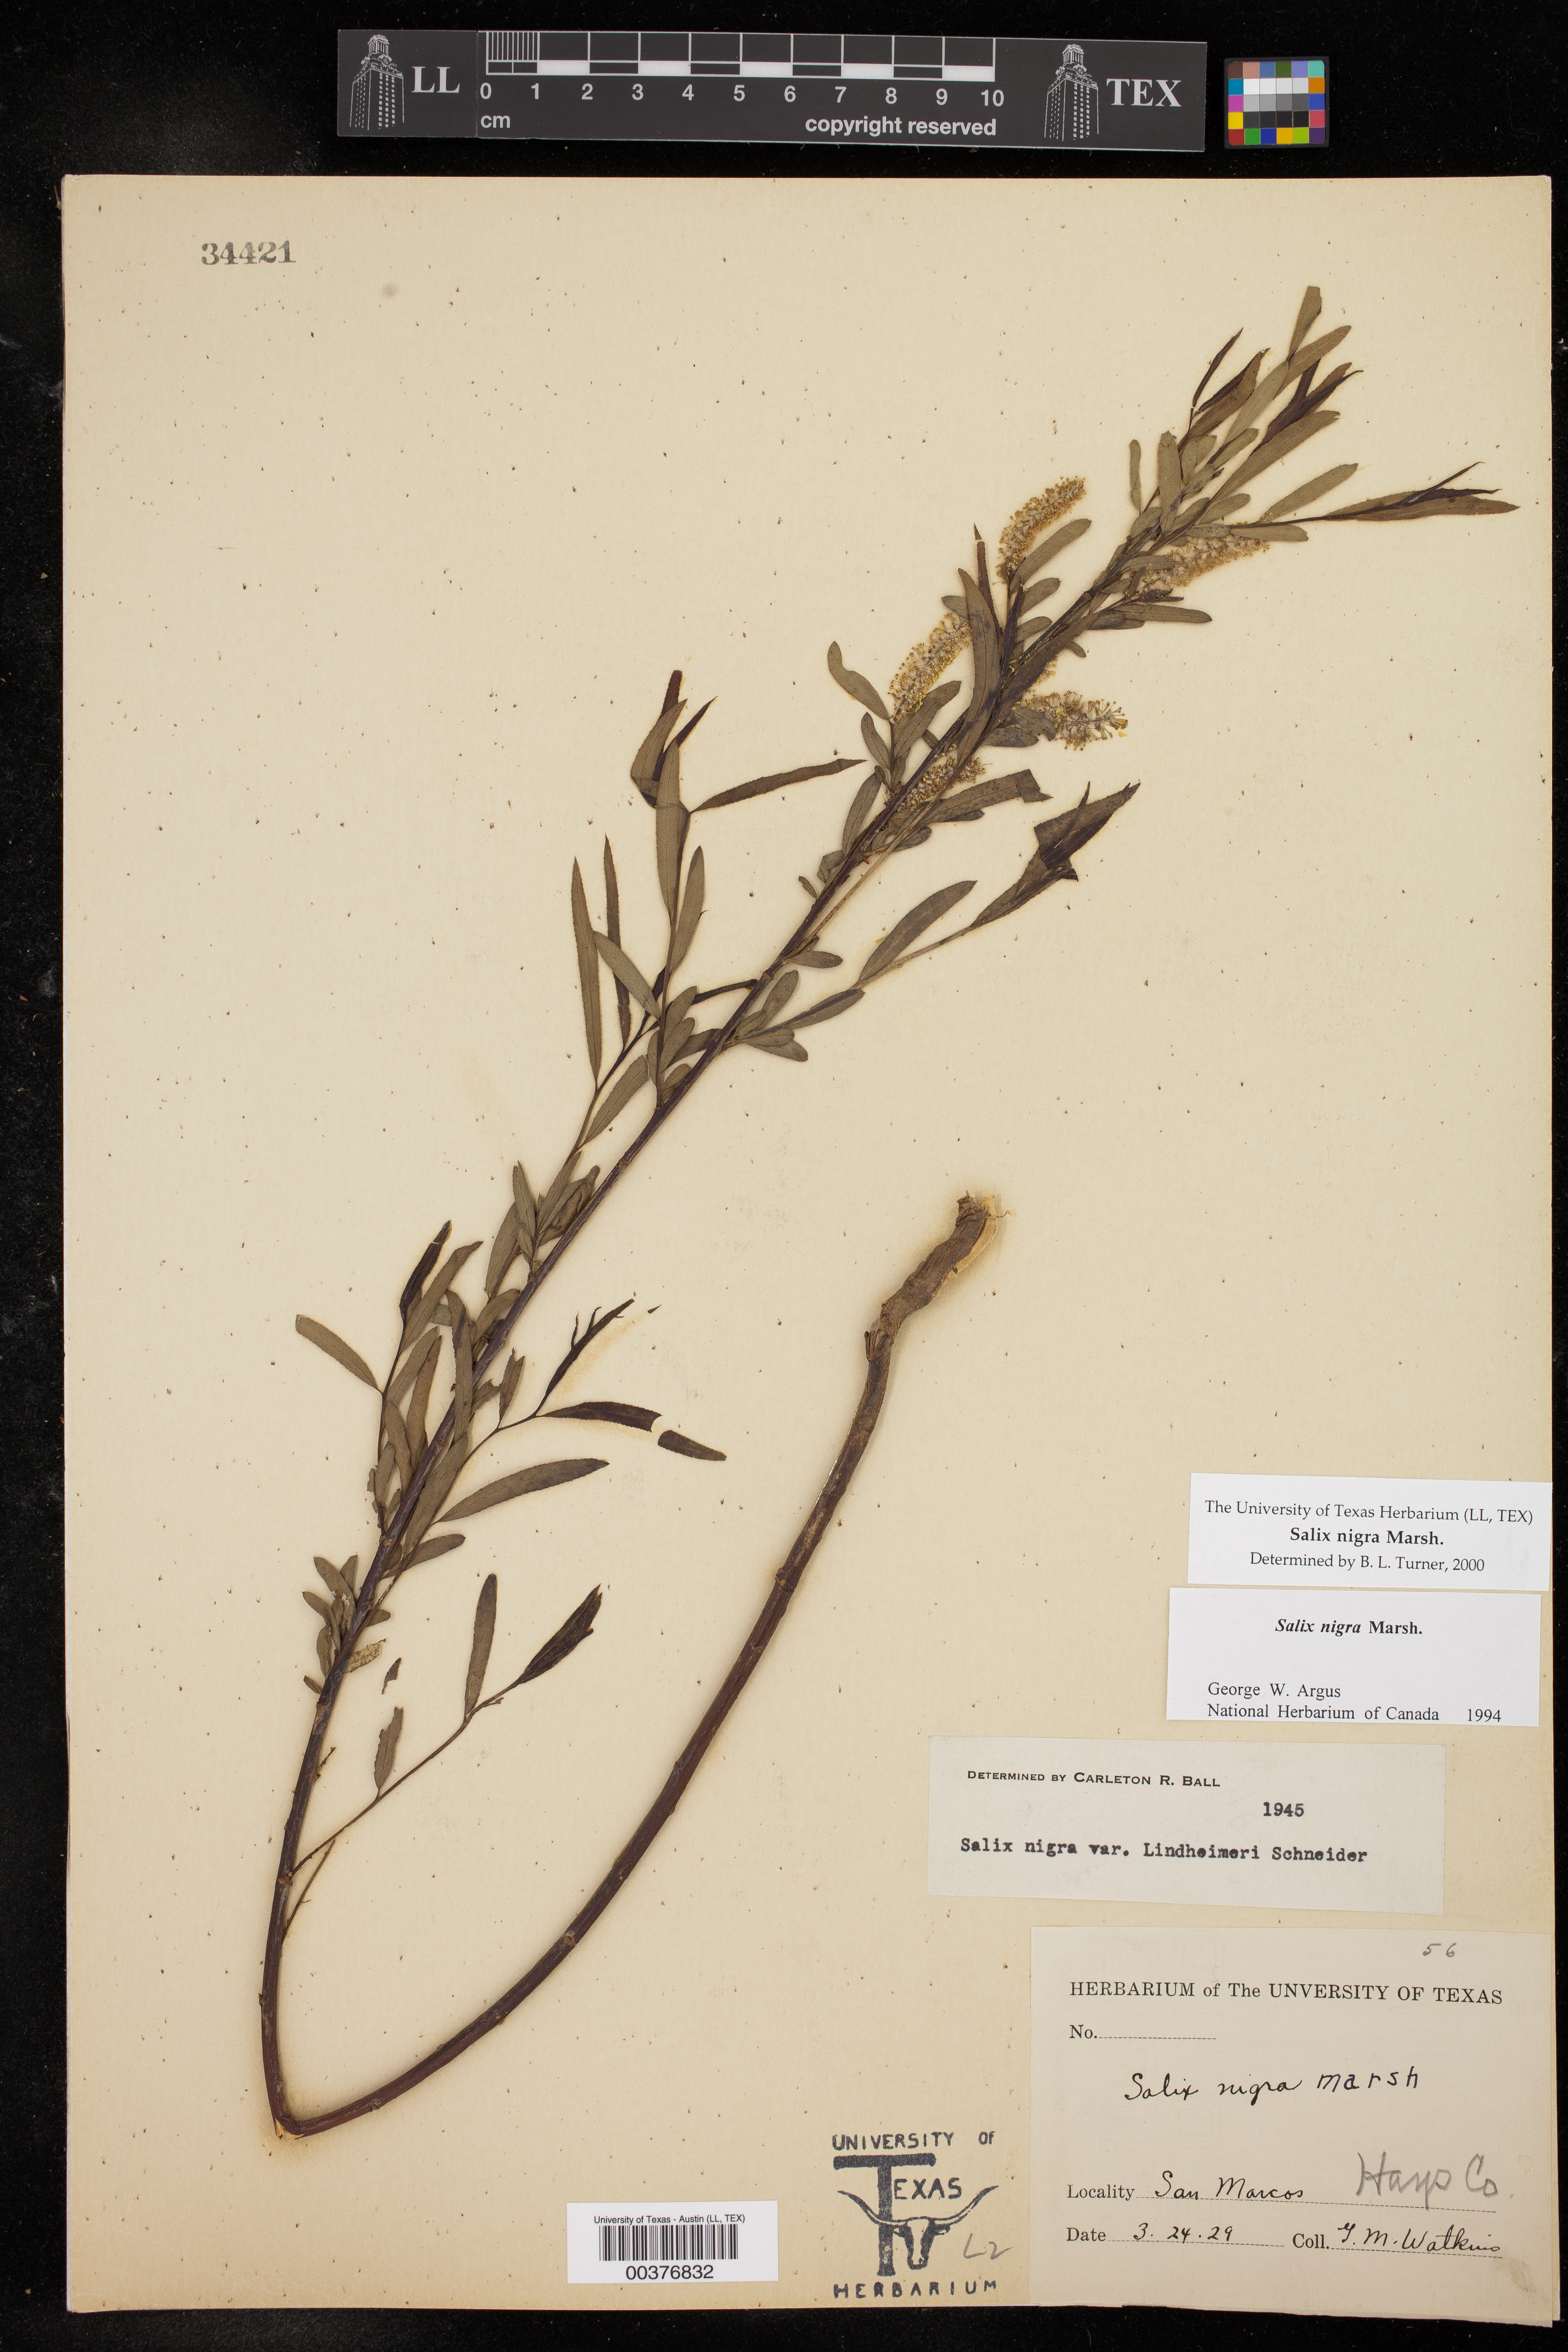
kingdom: Plantae
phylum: Tracheophyta
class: Magnoliopsida
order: Malpighiales
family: Salicaceae
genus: Salix
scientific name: Salix nigra
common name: Black willow
